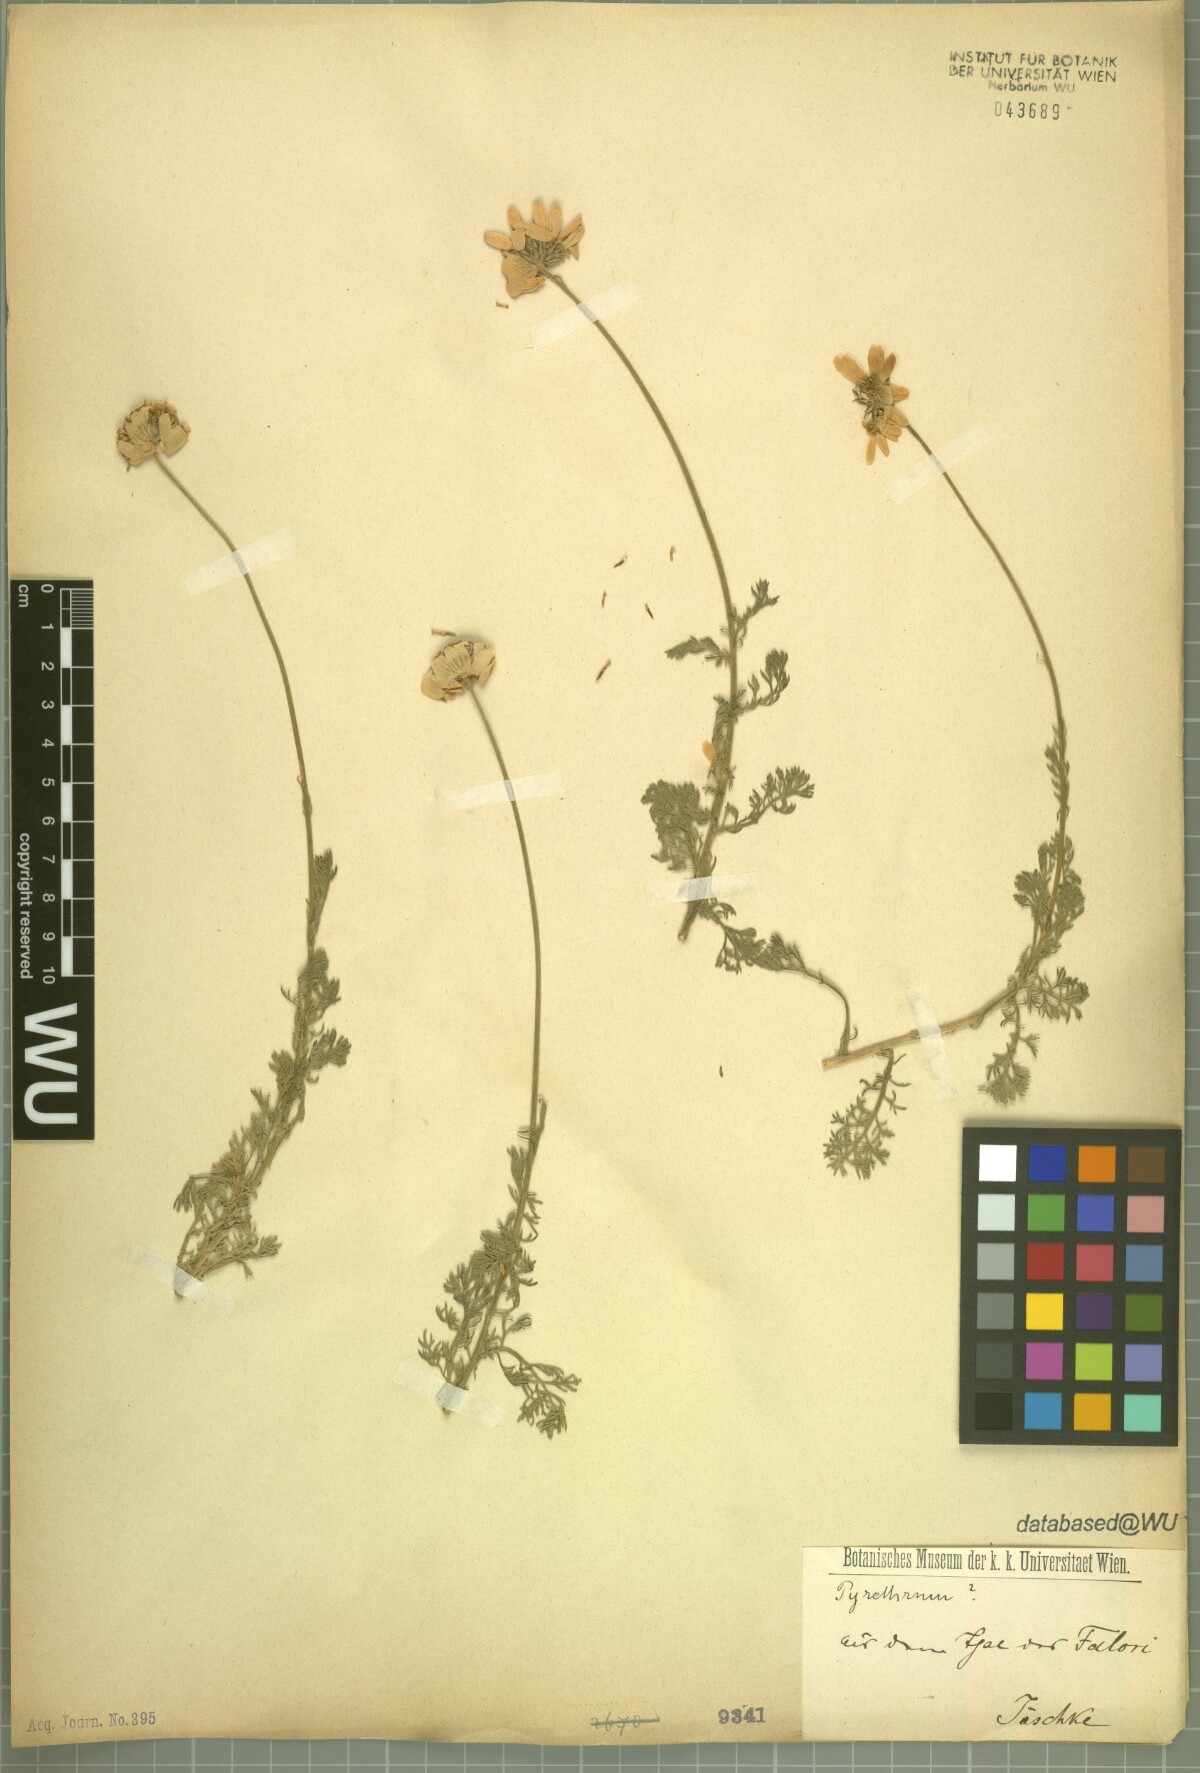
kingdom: Plantae
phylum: Tracheophyta
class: Magnoliopsida
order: Asterales
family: Asteraceae
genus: Pyrethrum
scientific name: Pyrethrum
